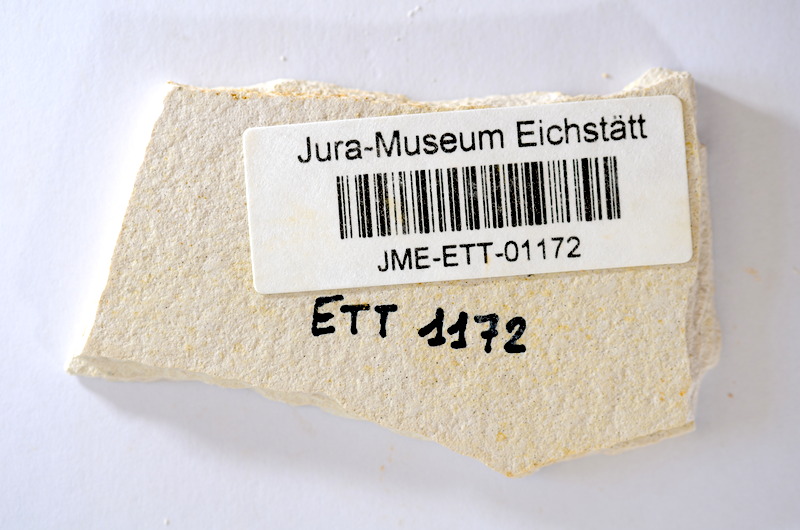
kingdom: Animalia
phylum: Chordata
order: Salmoniformes
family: Orthogonikleithridae
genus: Orthogonikleithrus
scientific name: Orthogonikleithrus hoelli
